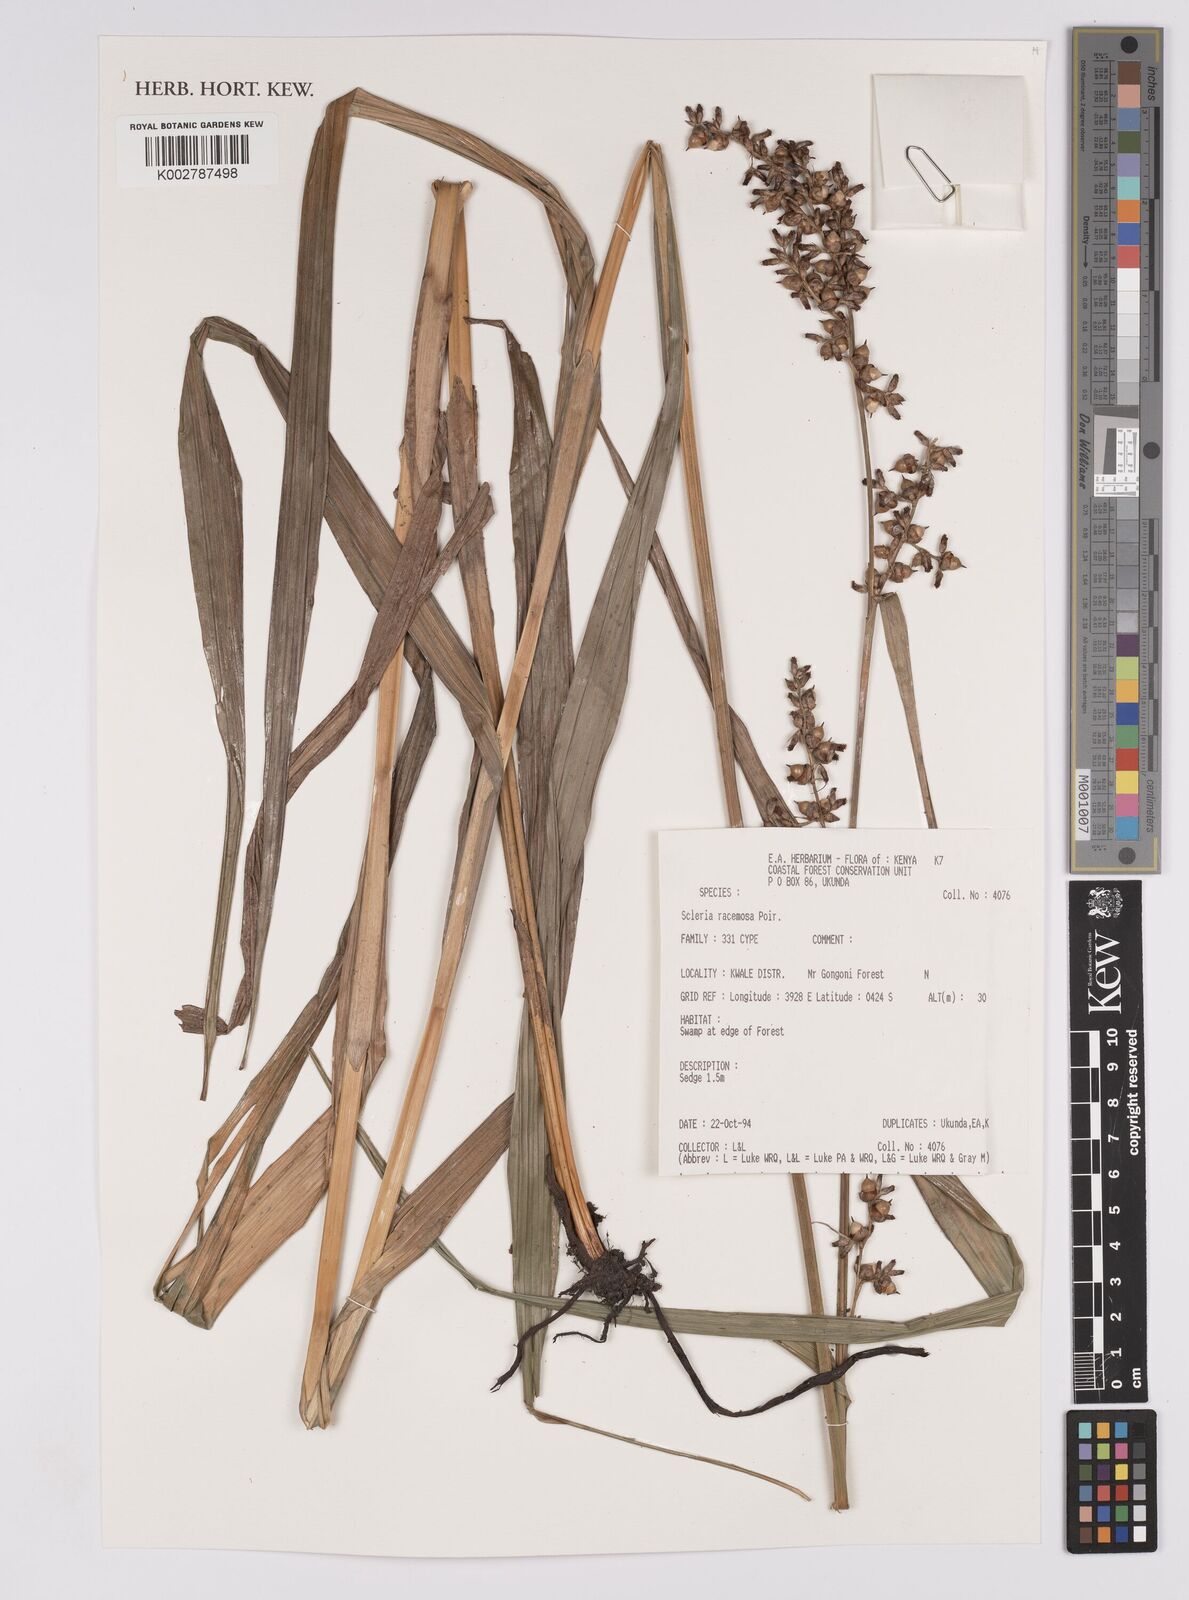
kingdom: Plantae
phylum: Tracheophyta
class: Liliopsida
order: Poales
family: Cyperaceae
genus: Scleria
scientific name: Scleria racemosa
